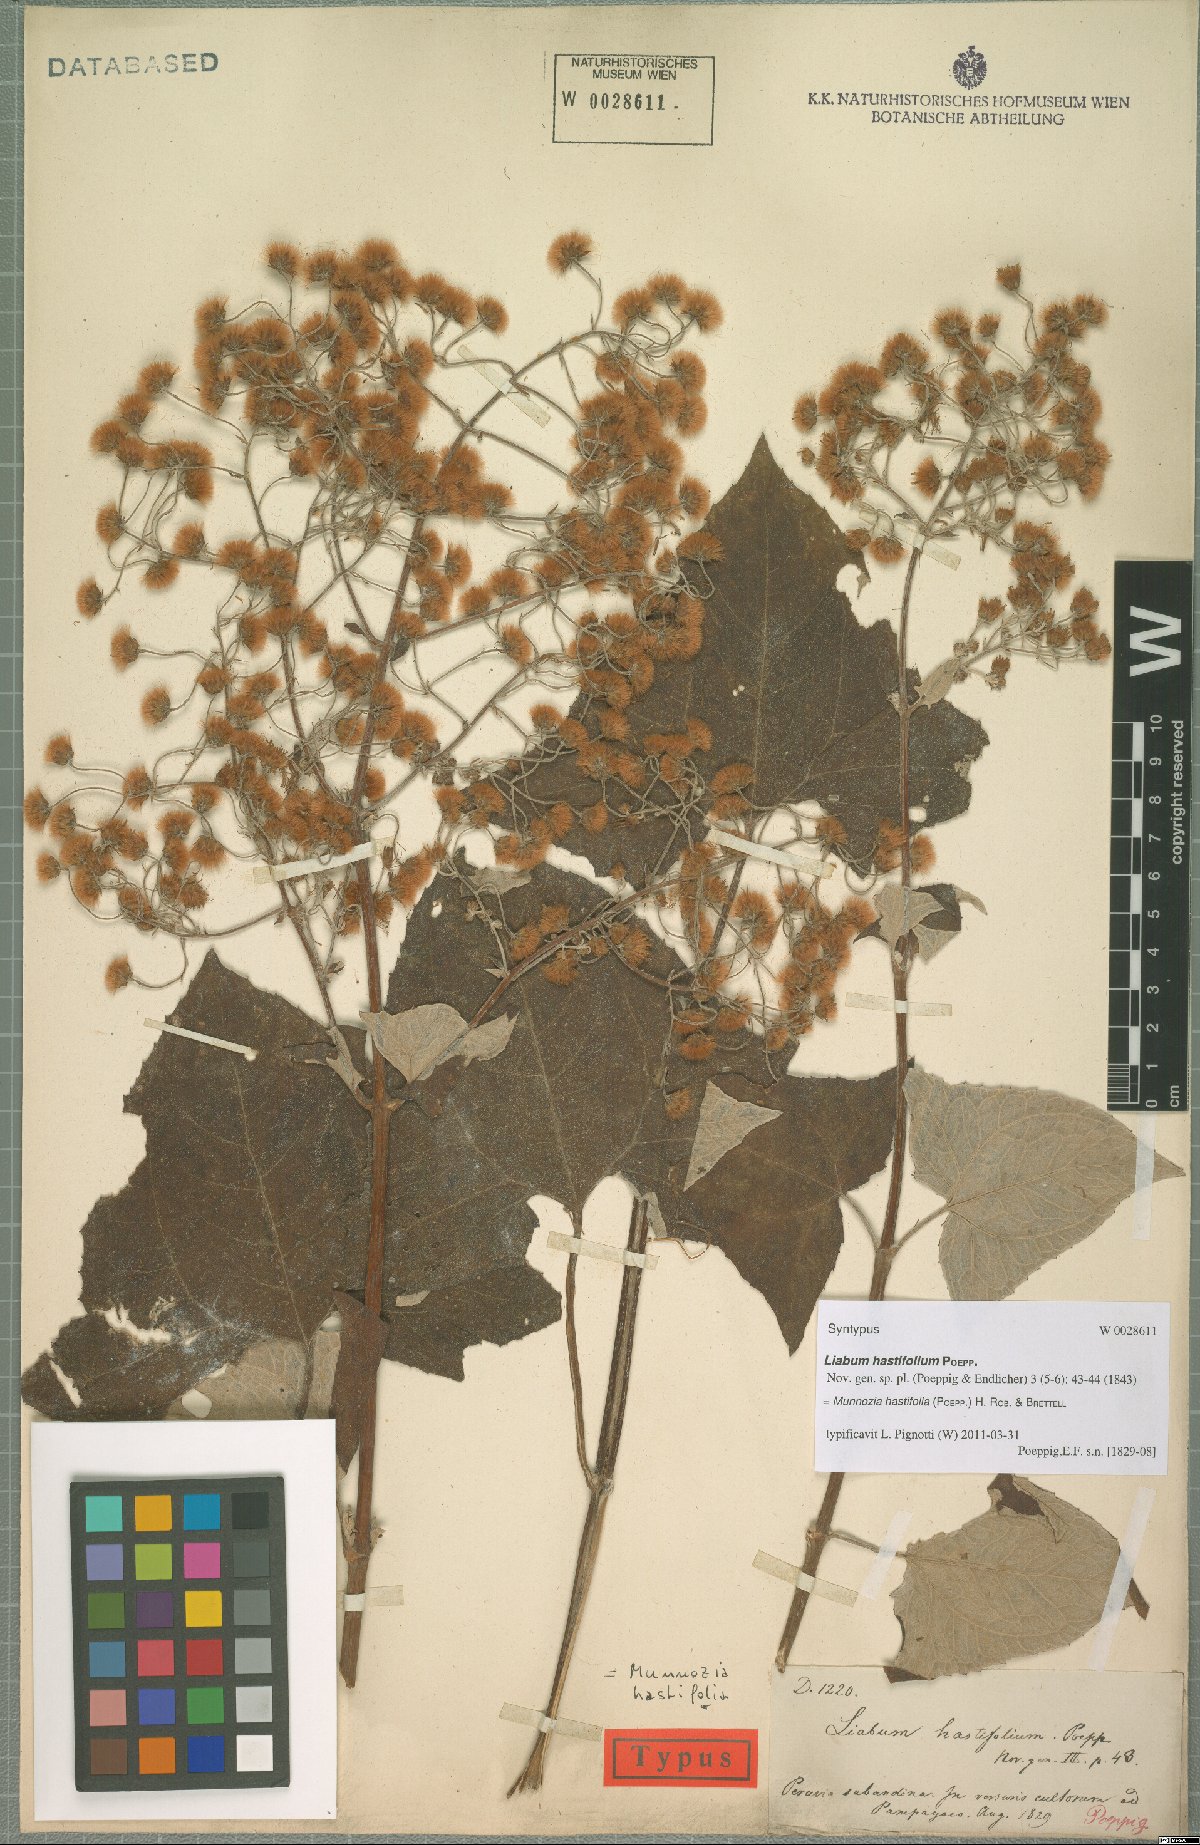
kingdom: Plantae
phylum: Tracheophyta
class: Magnoliopsida
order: Asterales
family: Asteraceae
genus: Munnozia
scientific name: Munnozia hastifolia
